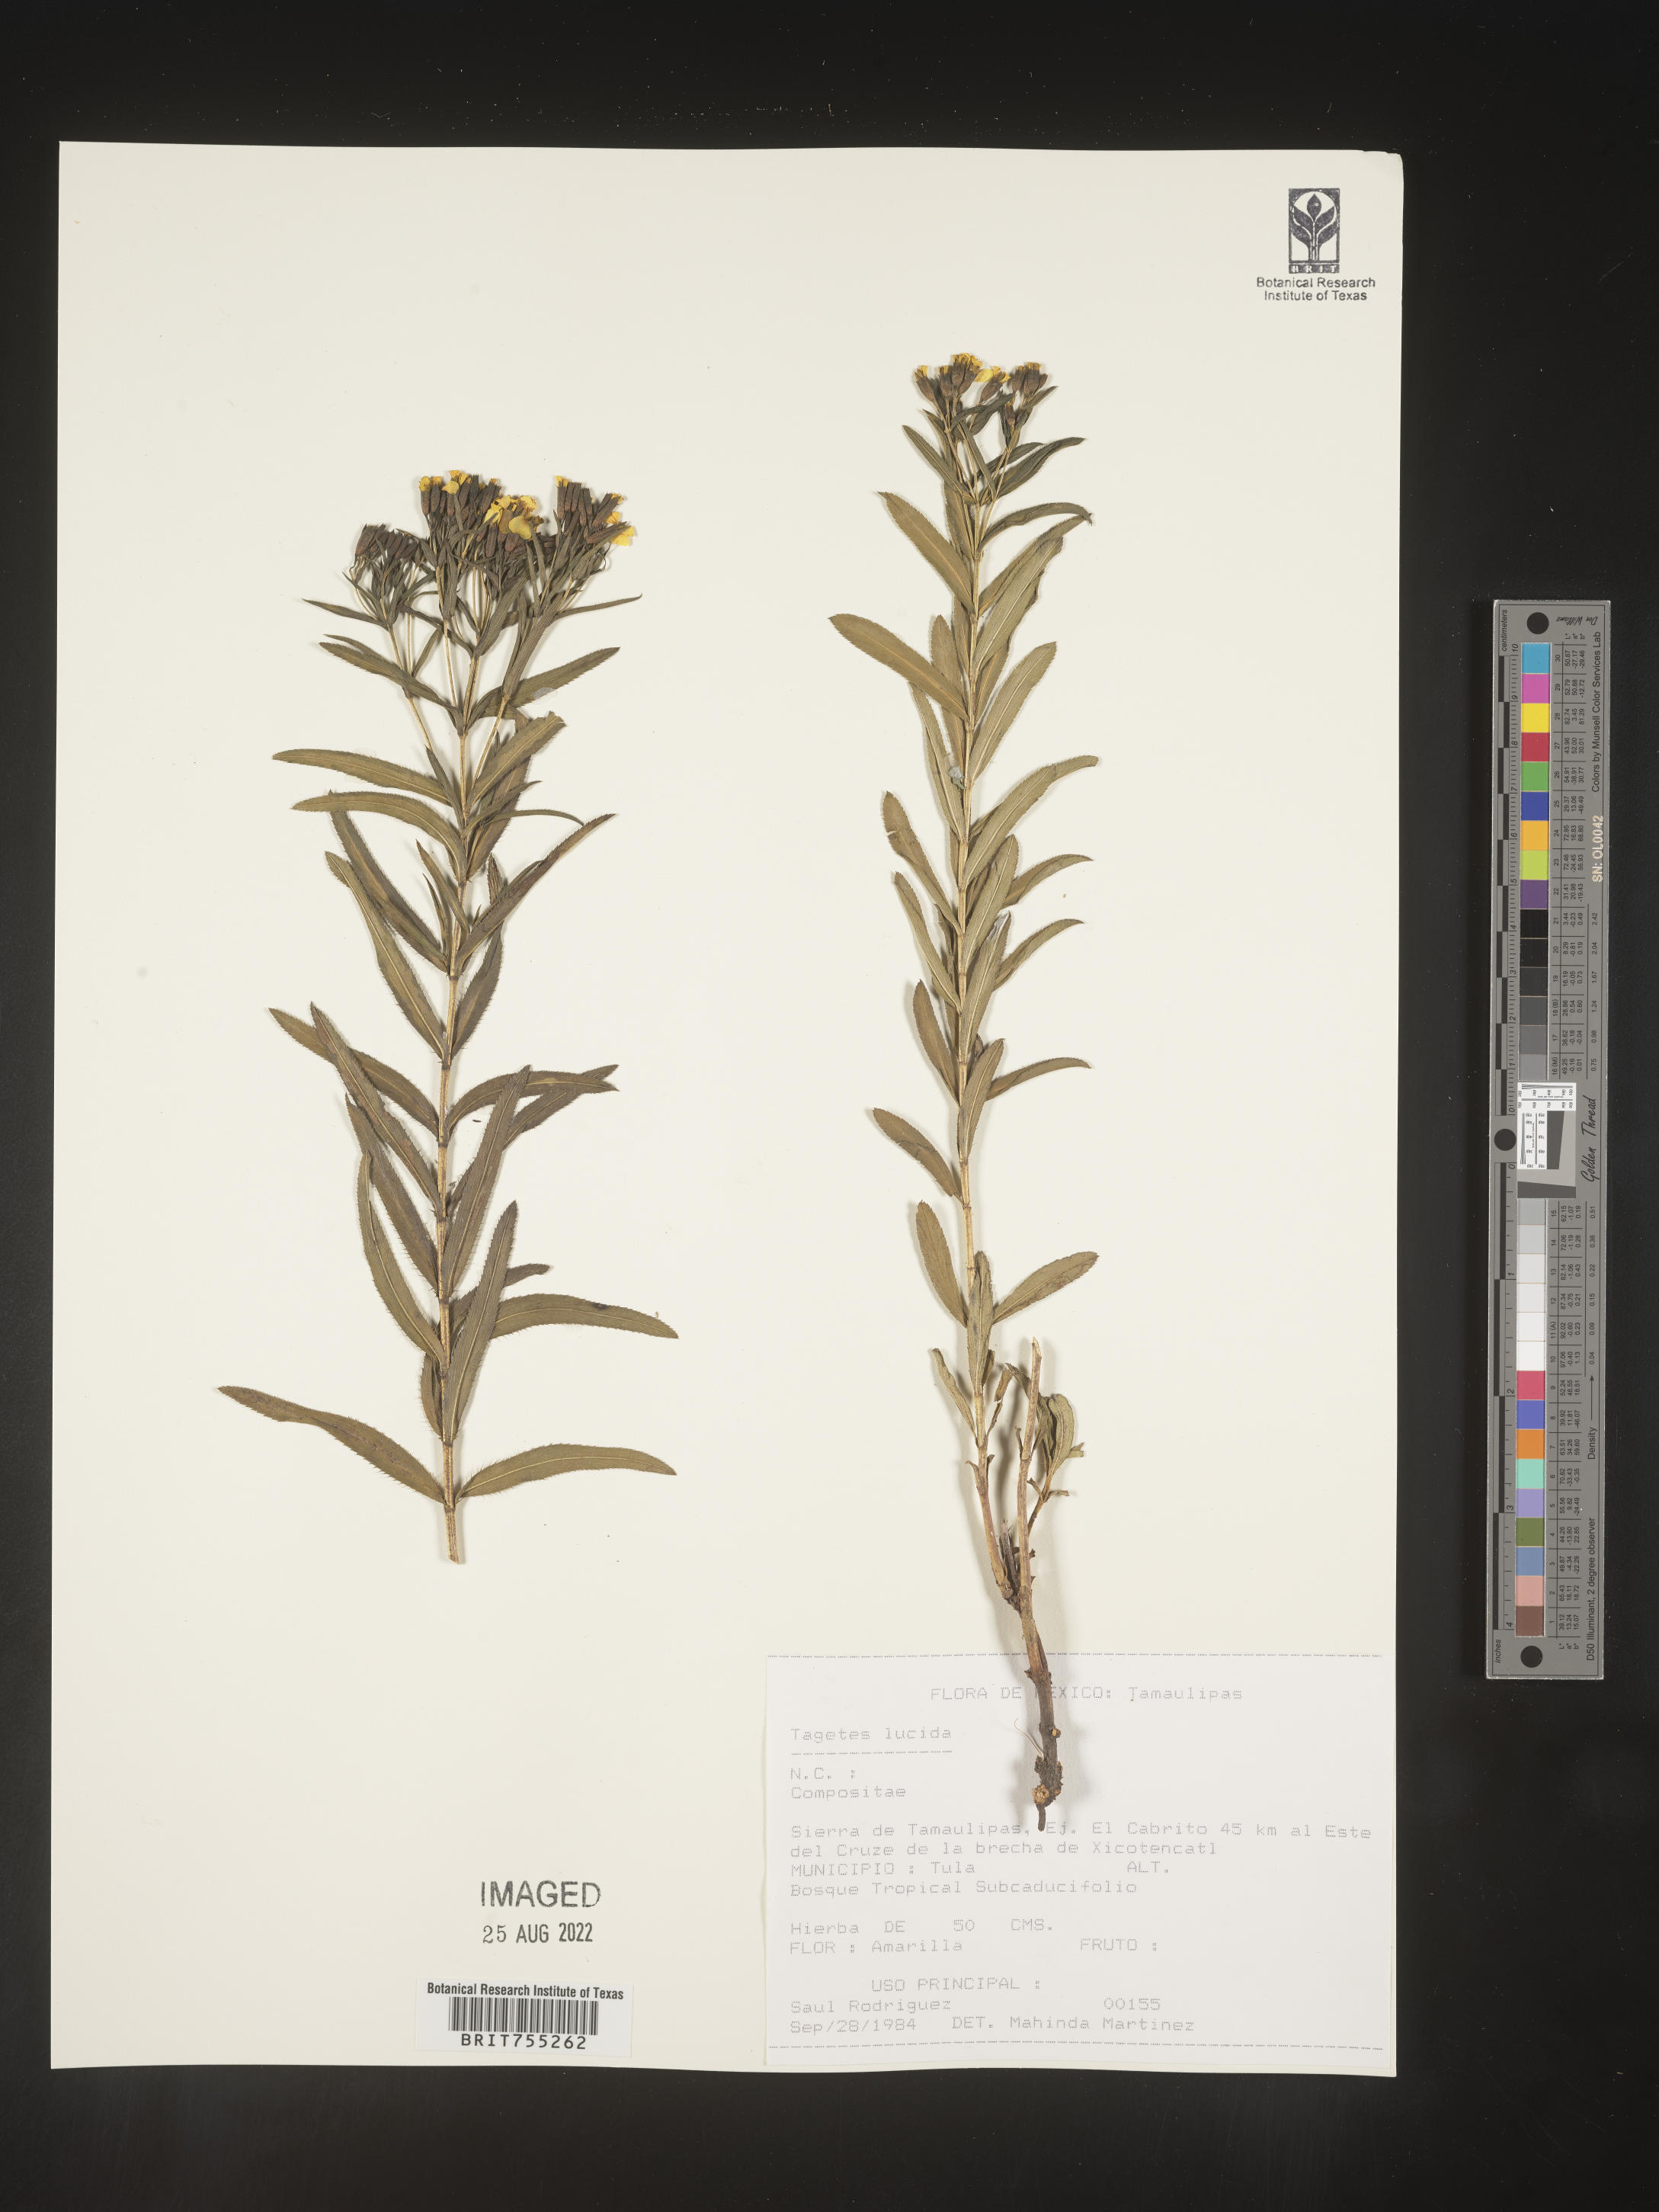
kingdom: Plantae
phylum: Tracheophyta
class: Magnoliopsida
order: Asterales
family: Asteraceae
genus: Tagetes
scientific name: Tagetes lucida
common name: Sweetscented marigold
